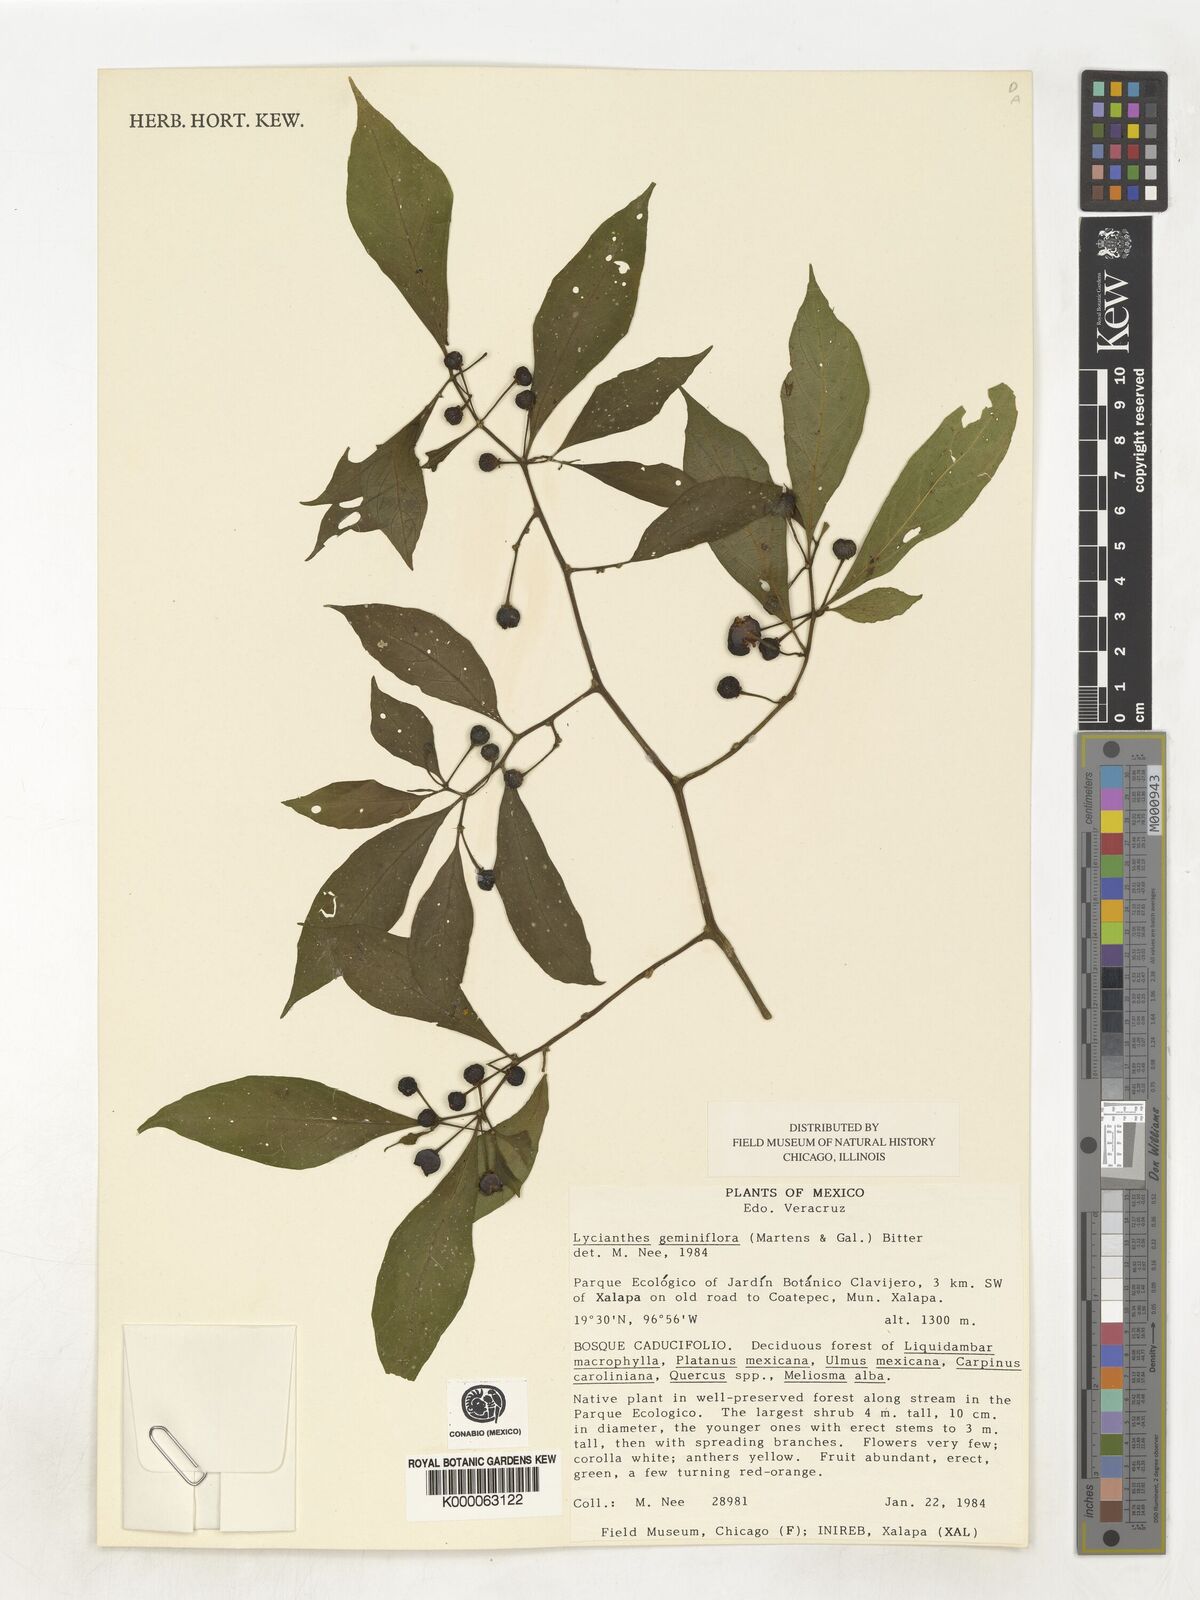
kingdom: Plantae
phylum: Tracheophyta
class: Magnoliopsida
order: Solanales
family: Solanaceae
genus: Lycianthes
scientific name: Lycianthes geminiflora
